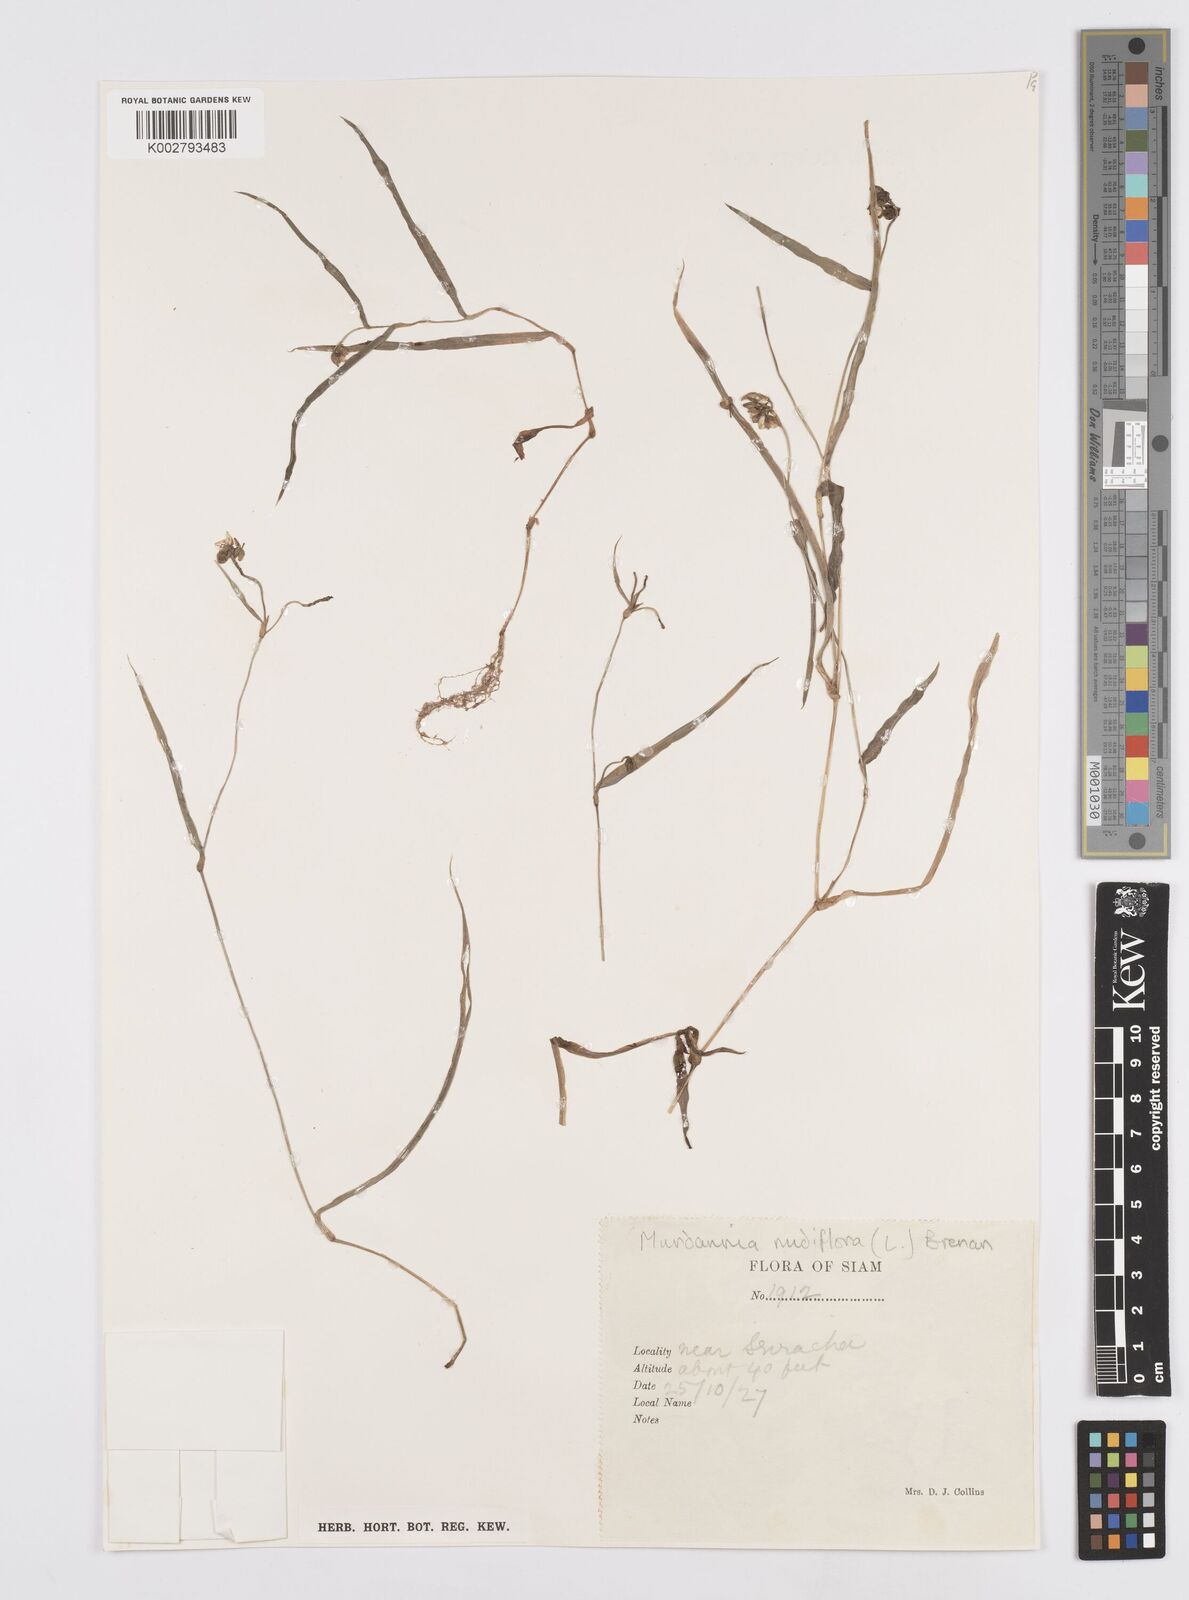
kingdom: Plantae
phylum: Tracheophyta
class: Liliopsida
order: Commelinales
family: Commelinaceae
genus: Murdannia
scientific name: Murdannia nudiflora
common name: Nakedstem dewflower
